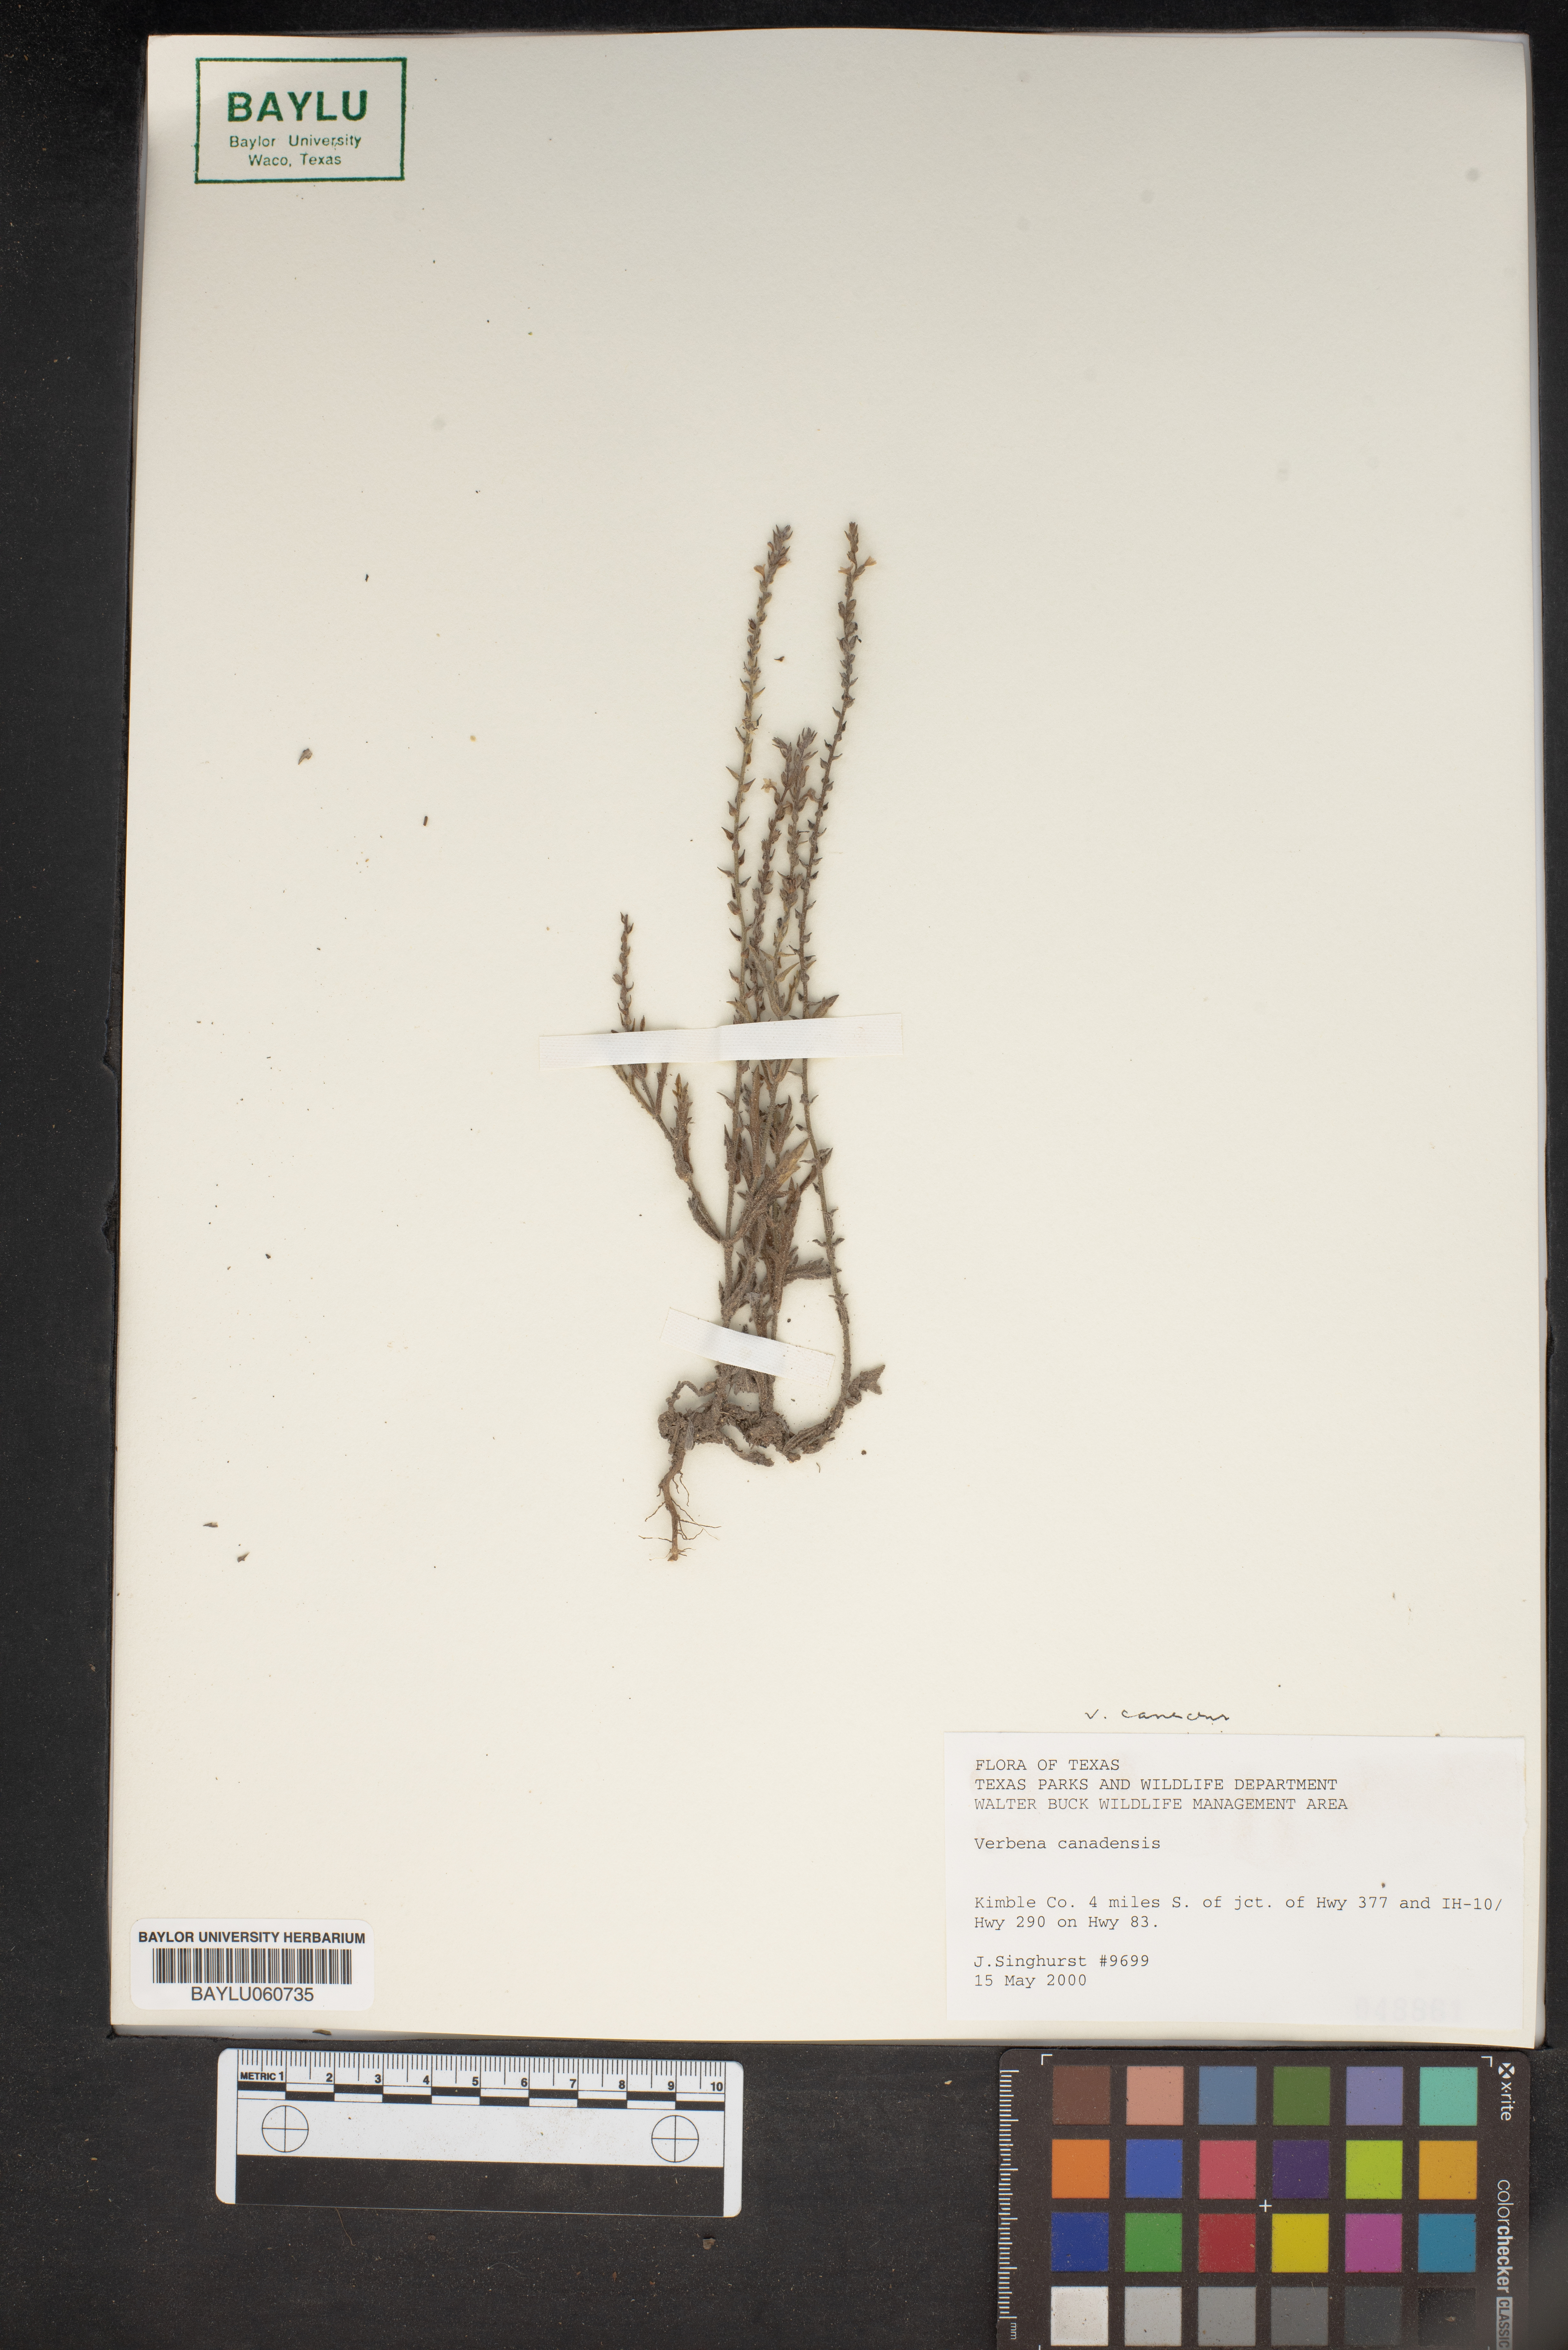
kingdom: Plantae
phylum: Tracheophyta
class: Magnoliopsida
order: Lamiales
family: Verbenaceae
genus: Verbena
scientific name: Verbena canadensis
